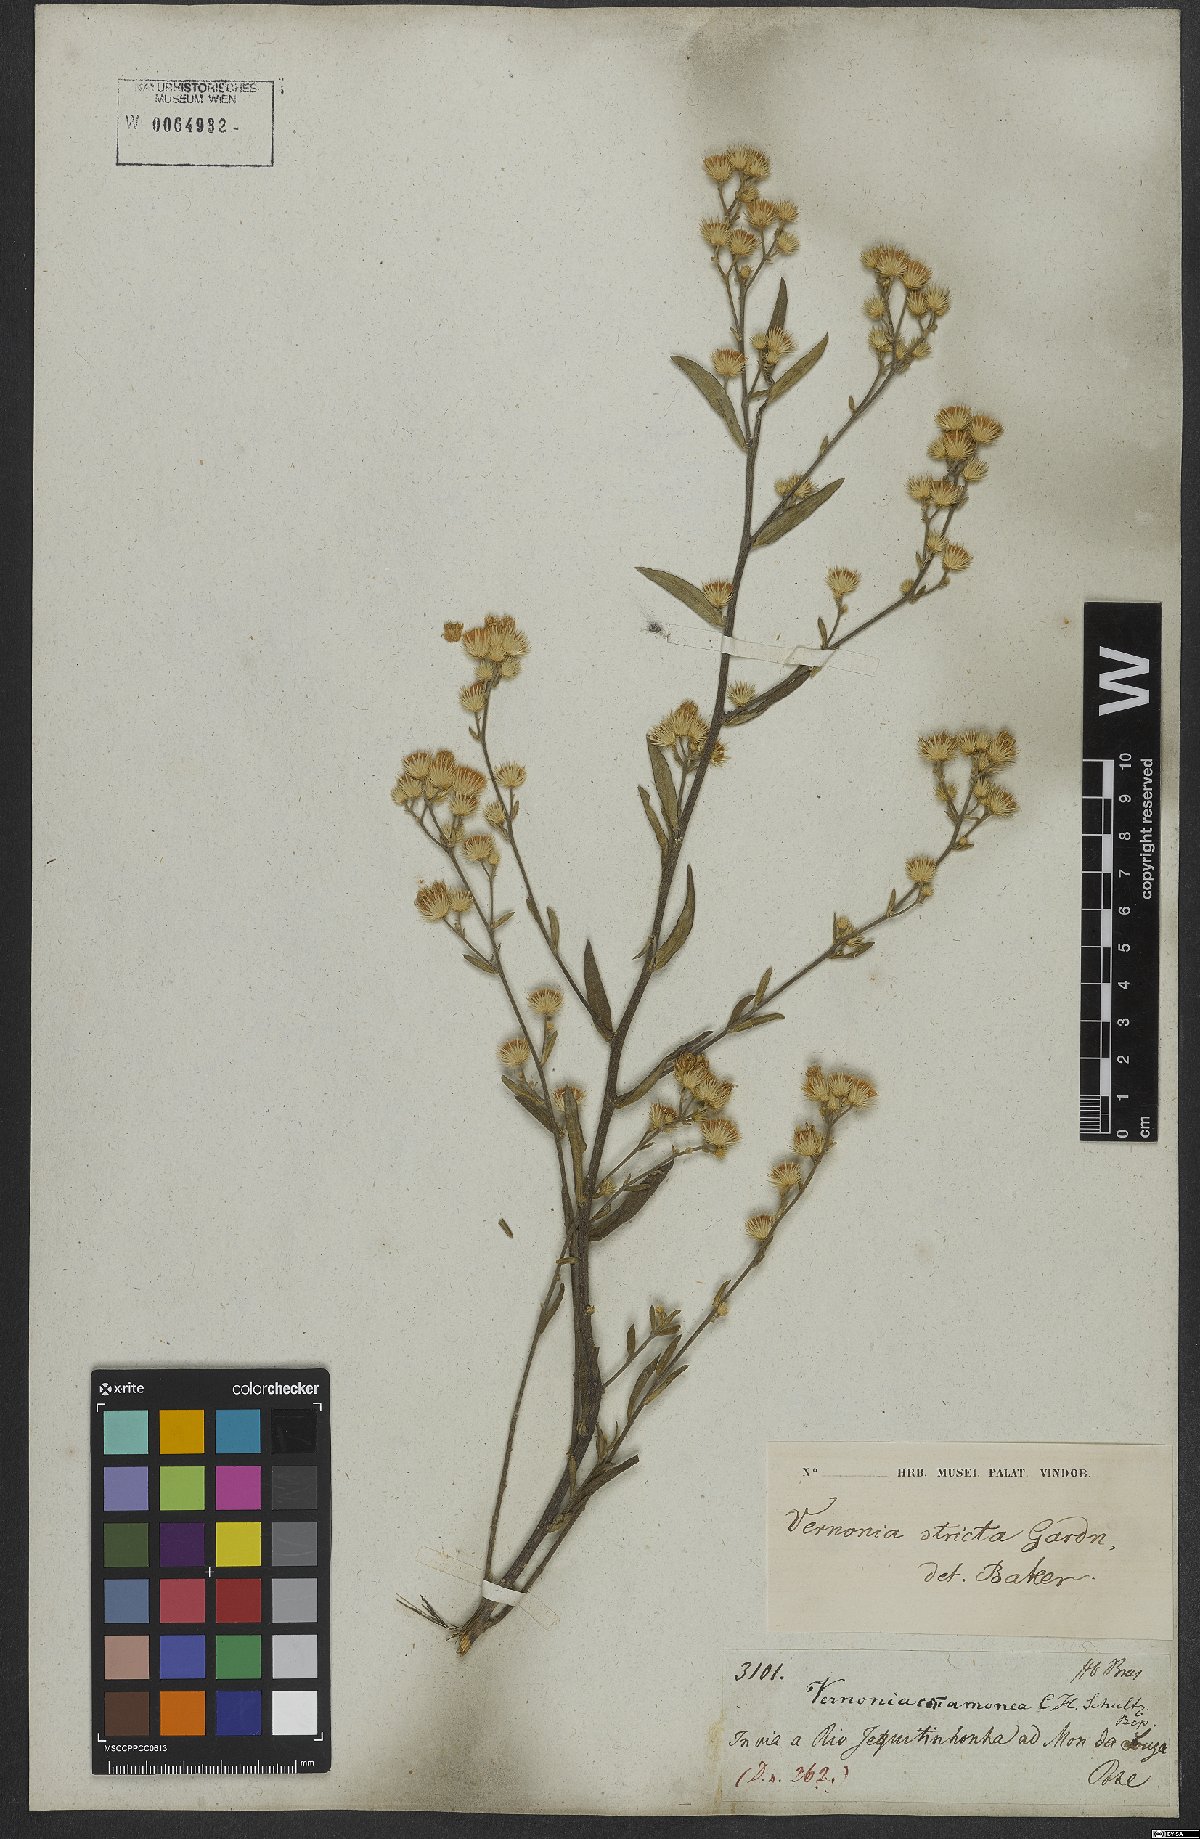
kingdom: Plantae
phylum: Tracheophyta
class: Magnoliopsida
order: Asterales
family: Asteraceae
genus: Echinocoryne
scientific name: Echinocoryne stricta
